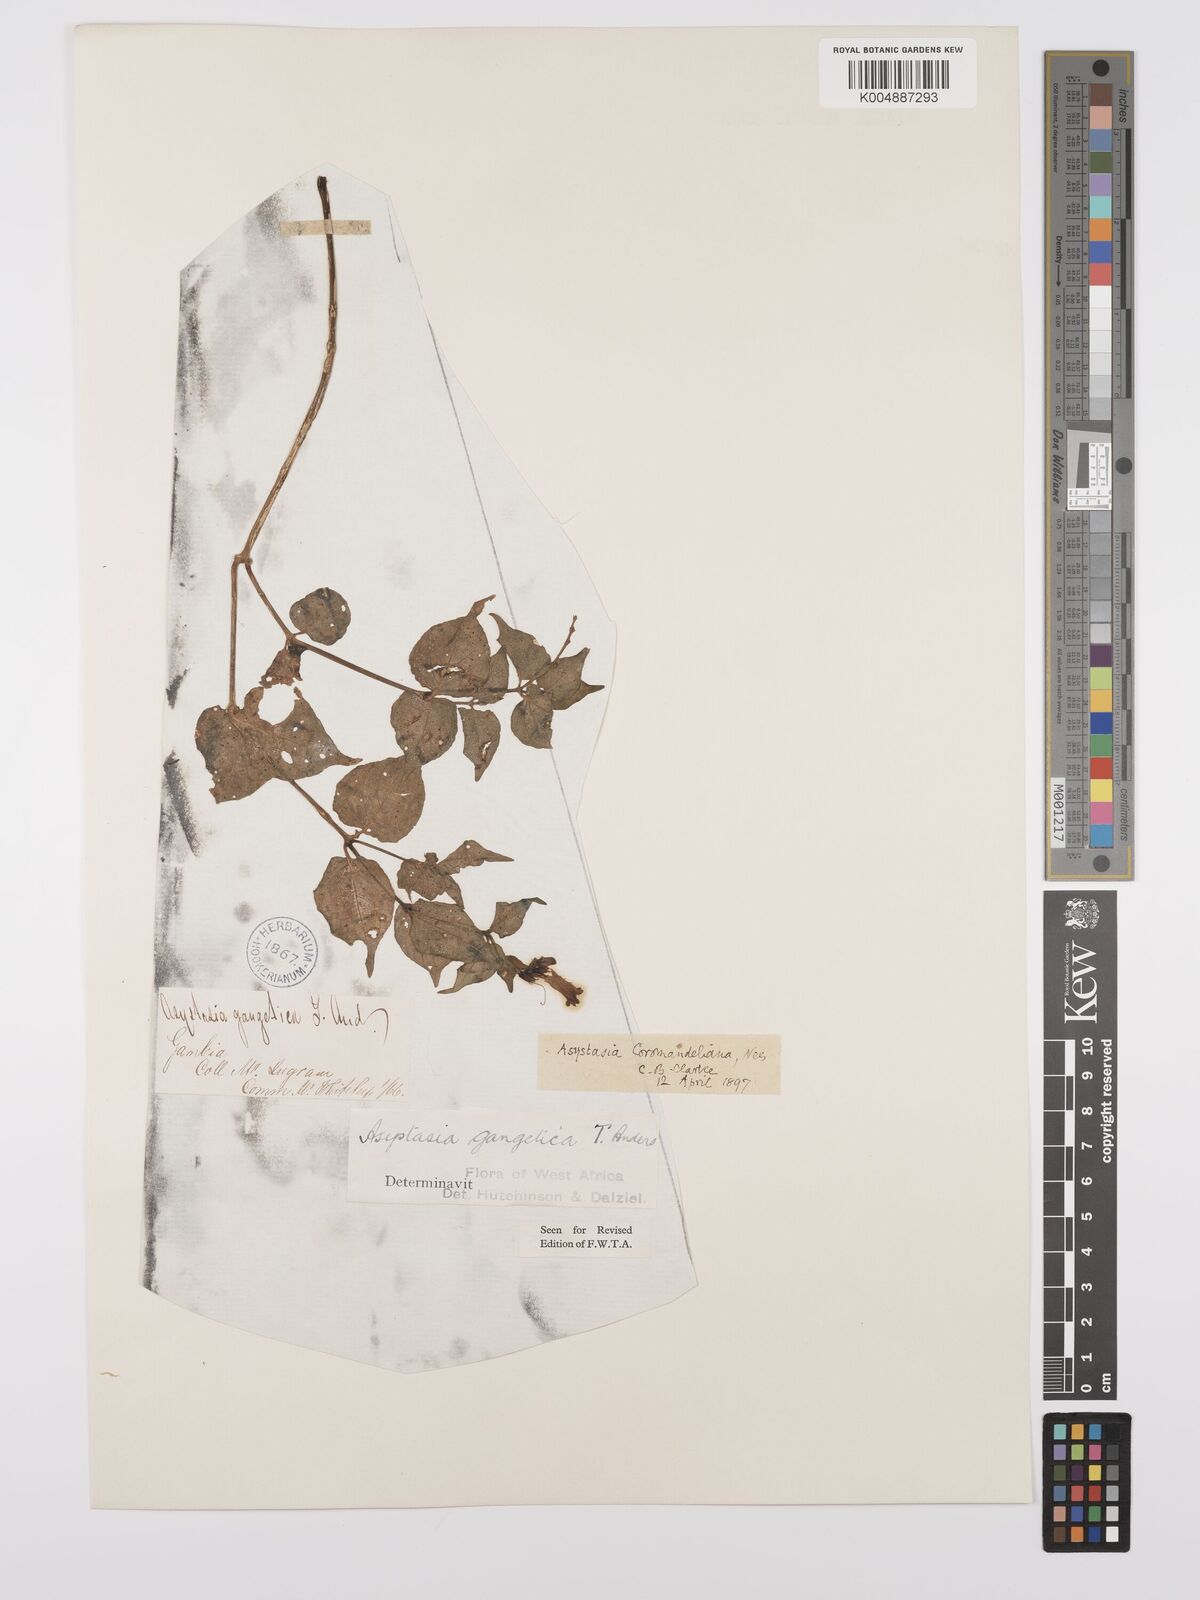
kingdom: Plantae
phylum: Tracheophyta
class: Magnoliopsida
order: Lamiales
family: Acanthaceae
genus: Asystasia
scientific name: Asystasia gangetica
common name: Chinese violet
